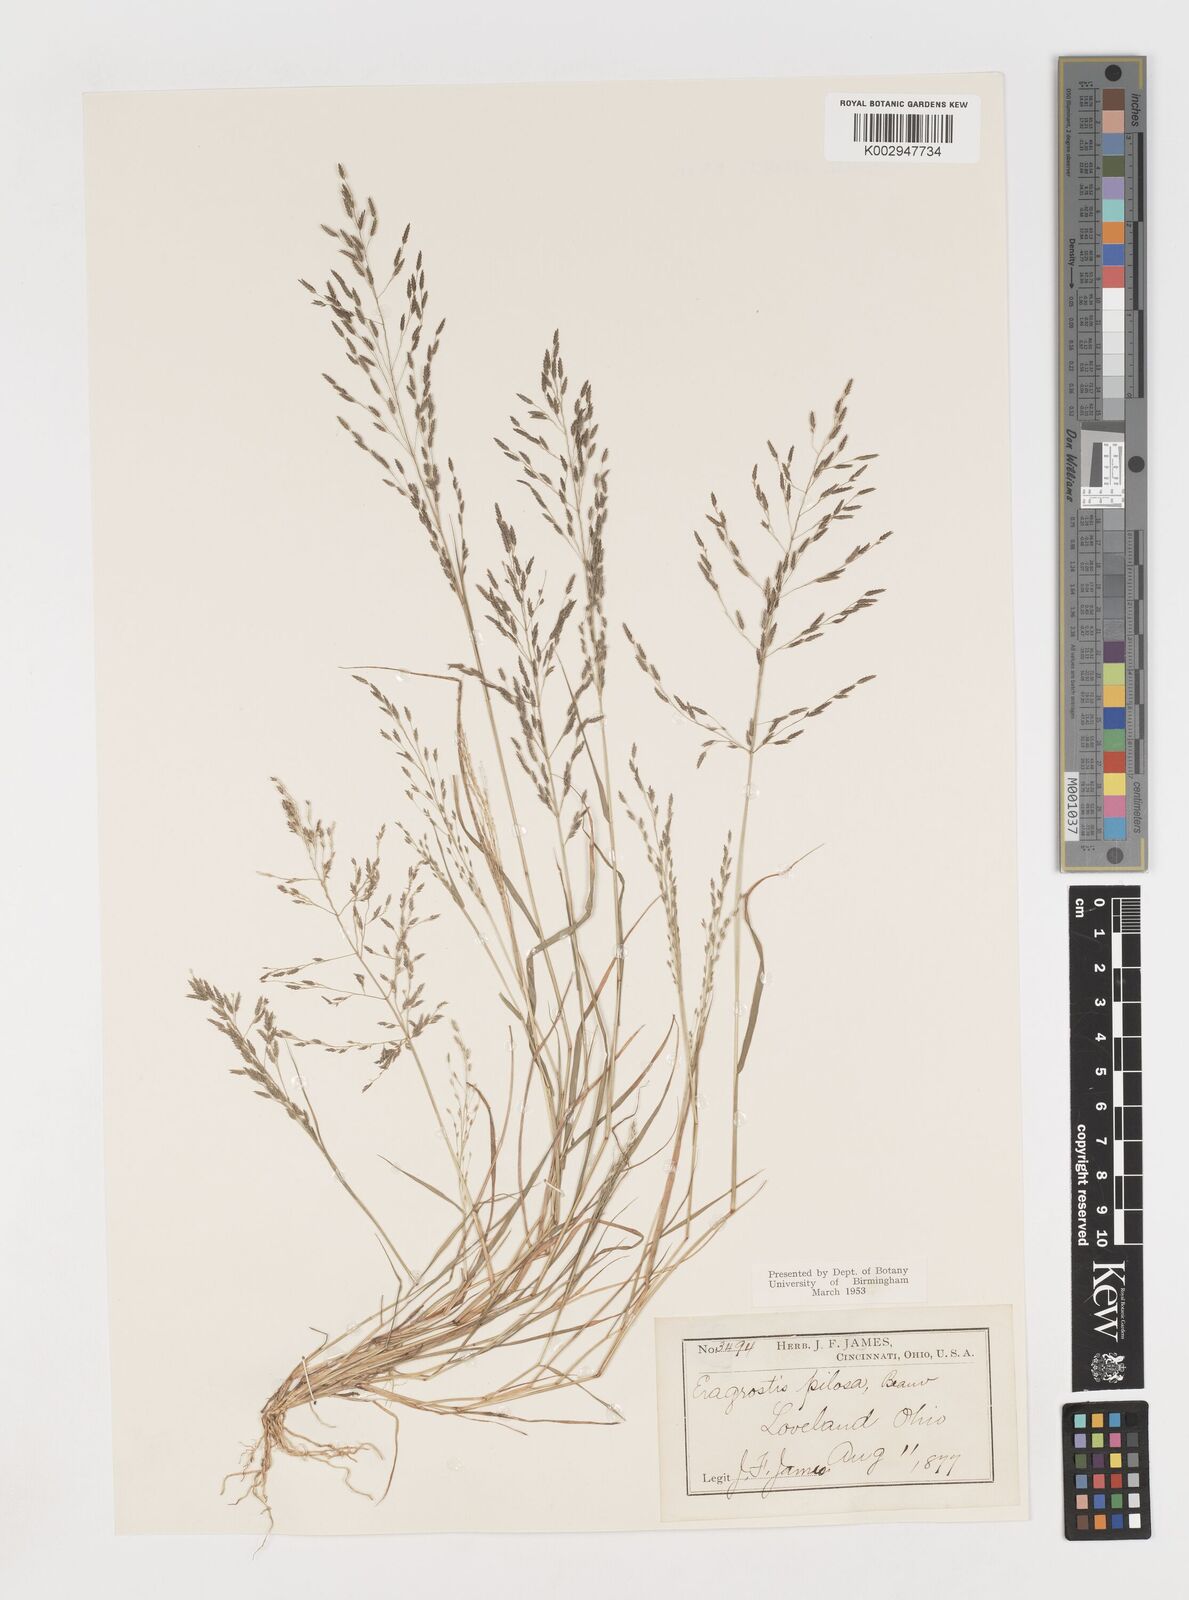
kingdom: Plantae
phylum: Tracheophyta
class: Liliopsida
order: Poales
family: Poaceae
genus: Eragrostis
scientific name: Eragrostis pilosa
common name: Indian lovegrass
